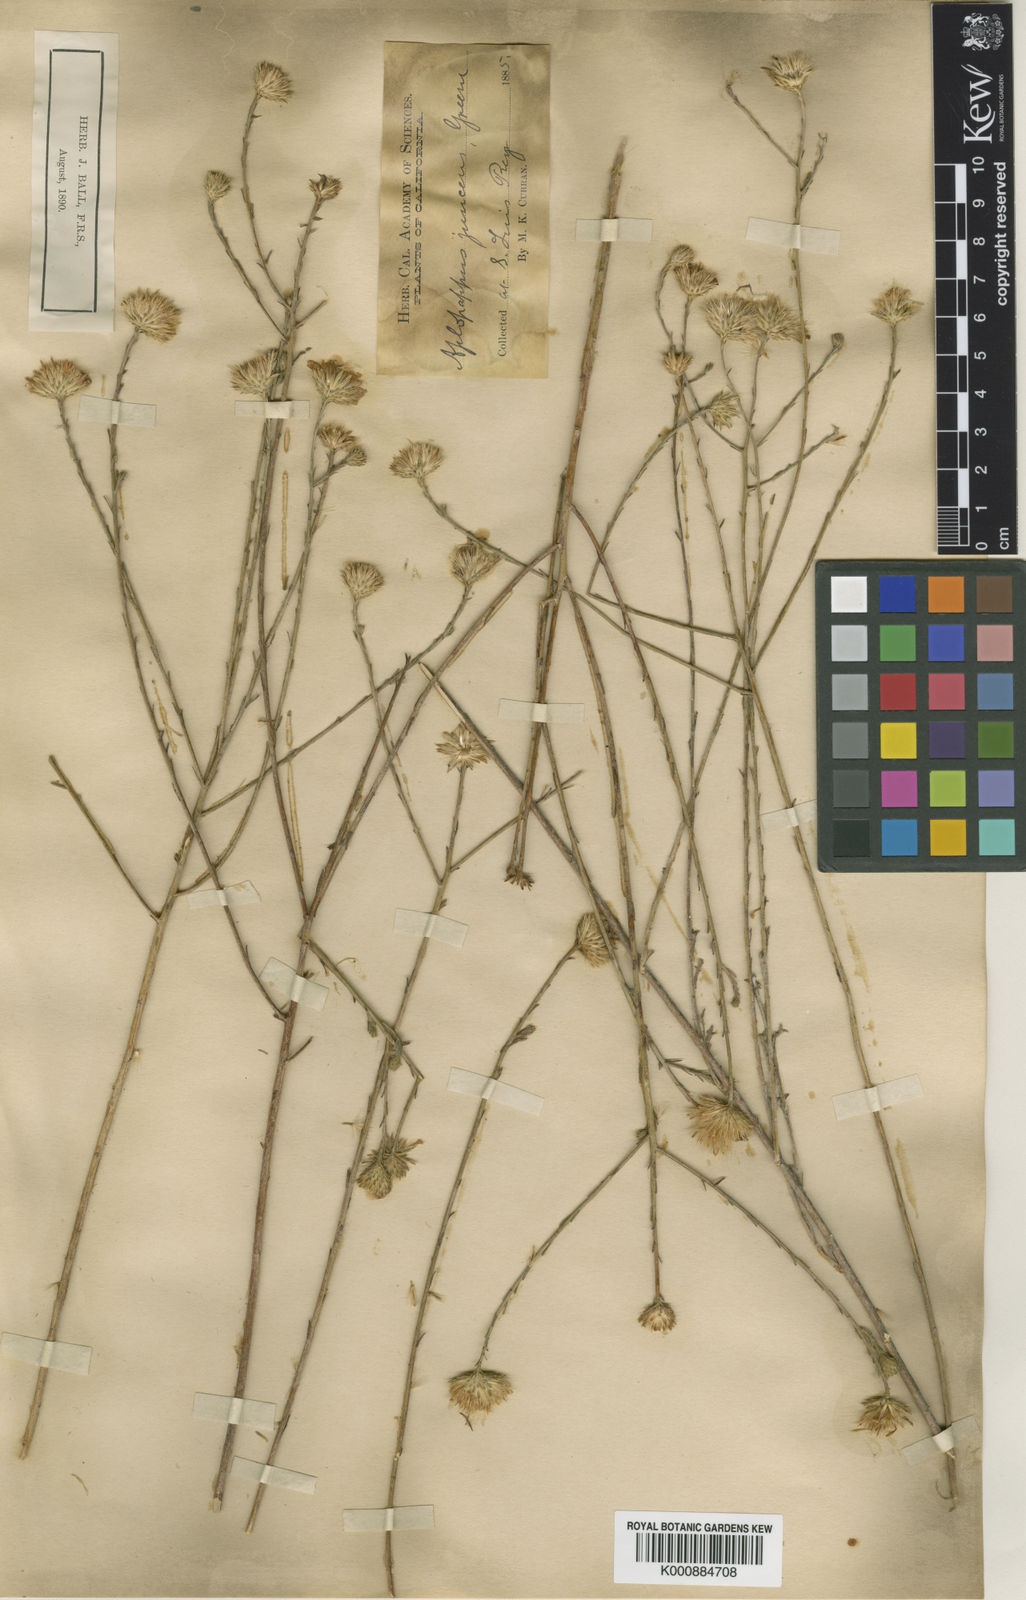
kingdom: Plantae
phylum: Tracheophyta
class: Magnoliopsida
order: Asterales
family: Asteraceae
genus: Xanthisma
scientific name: Xanthisma junceum
